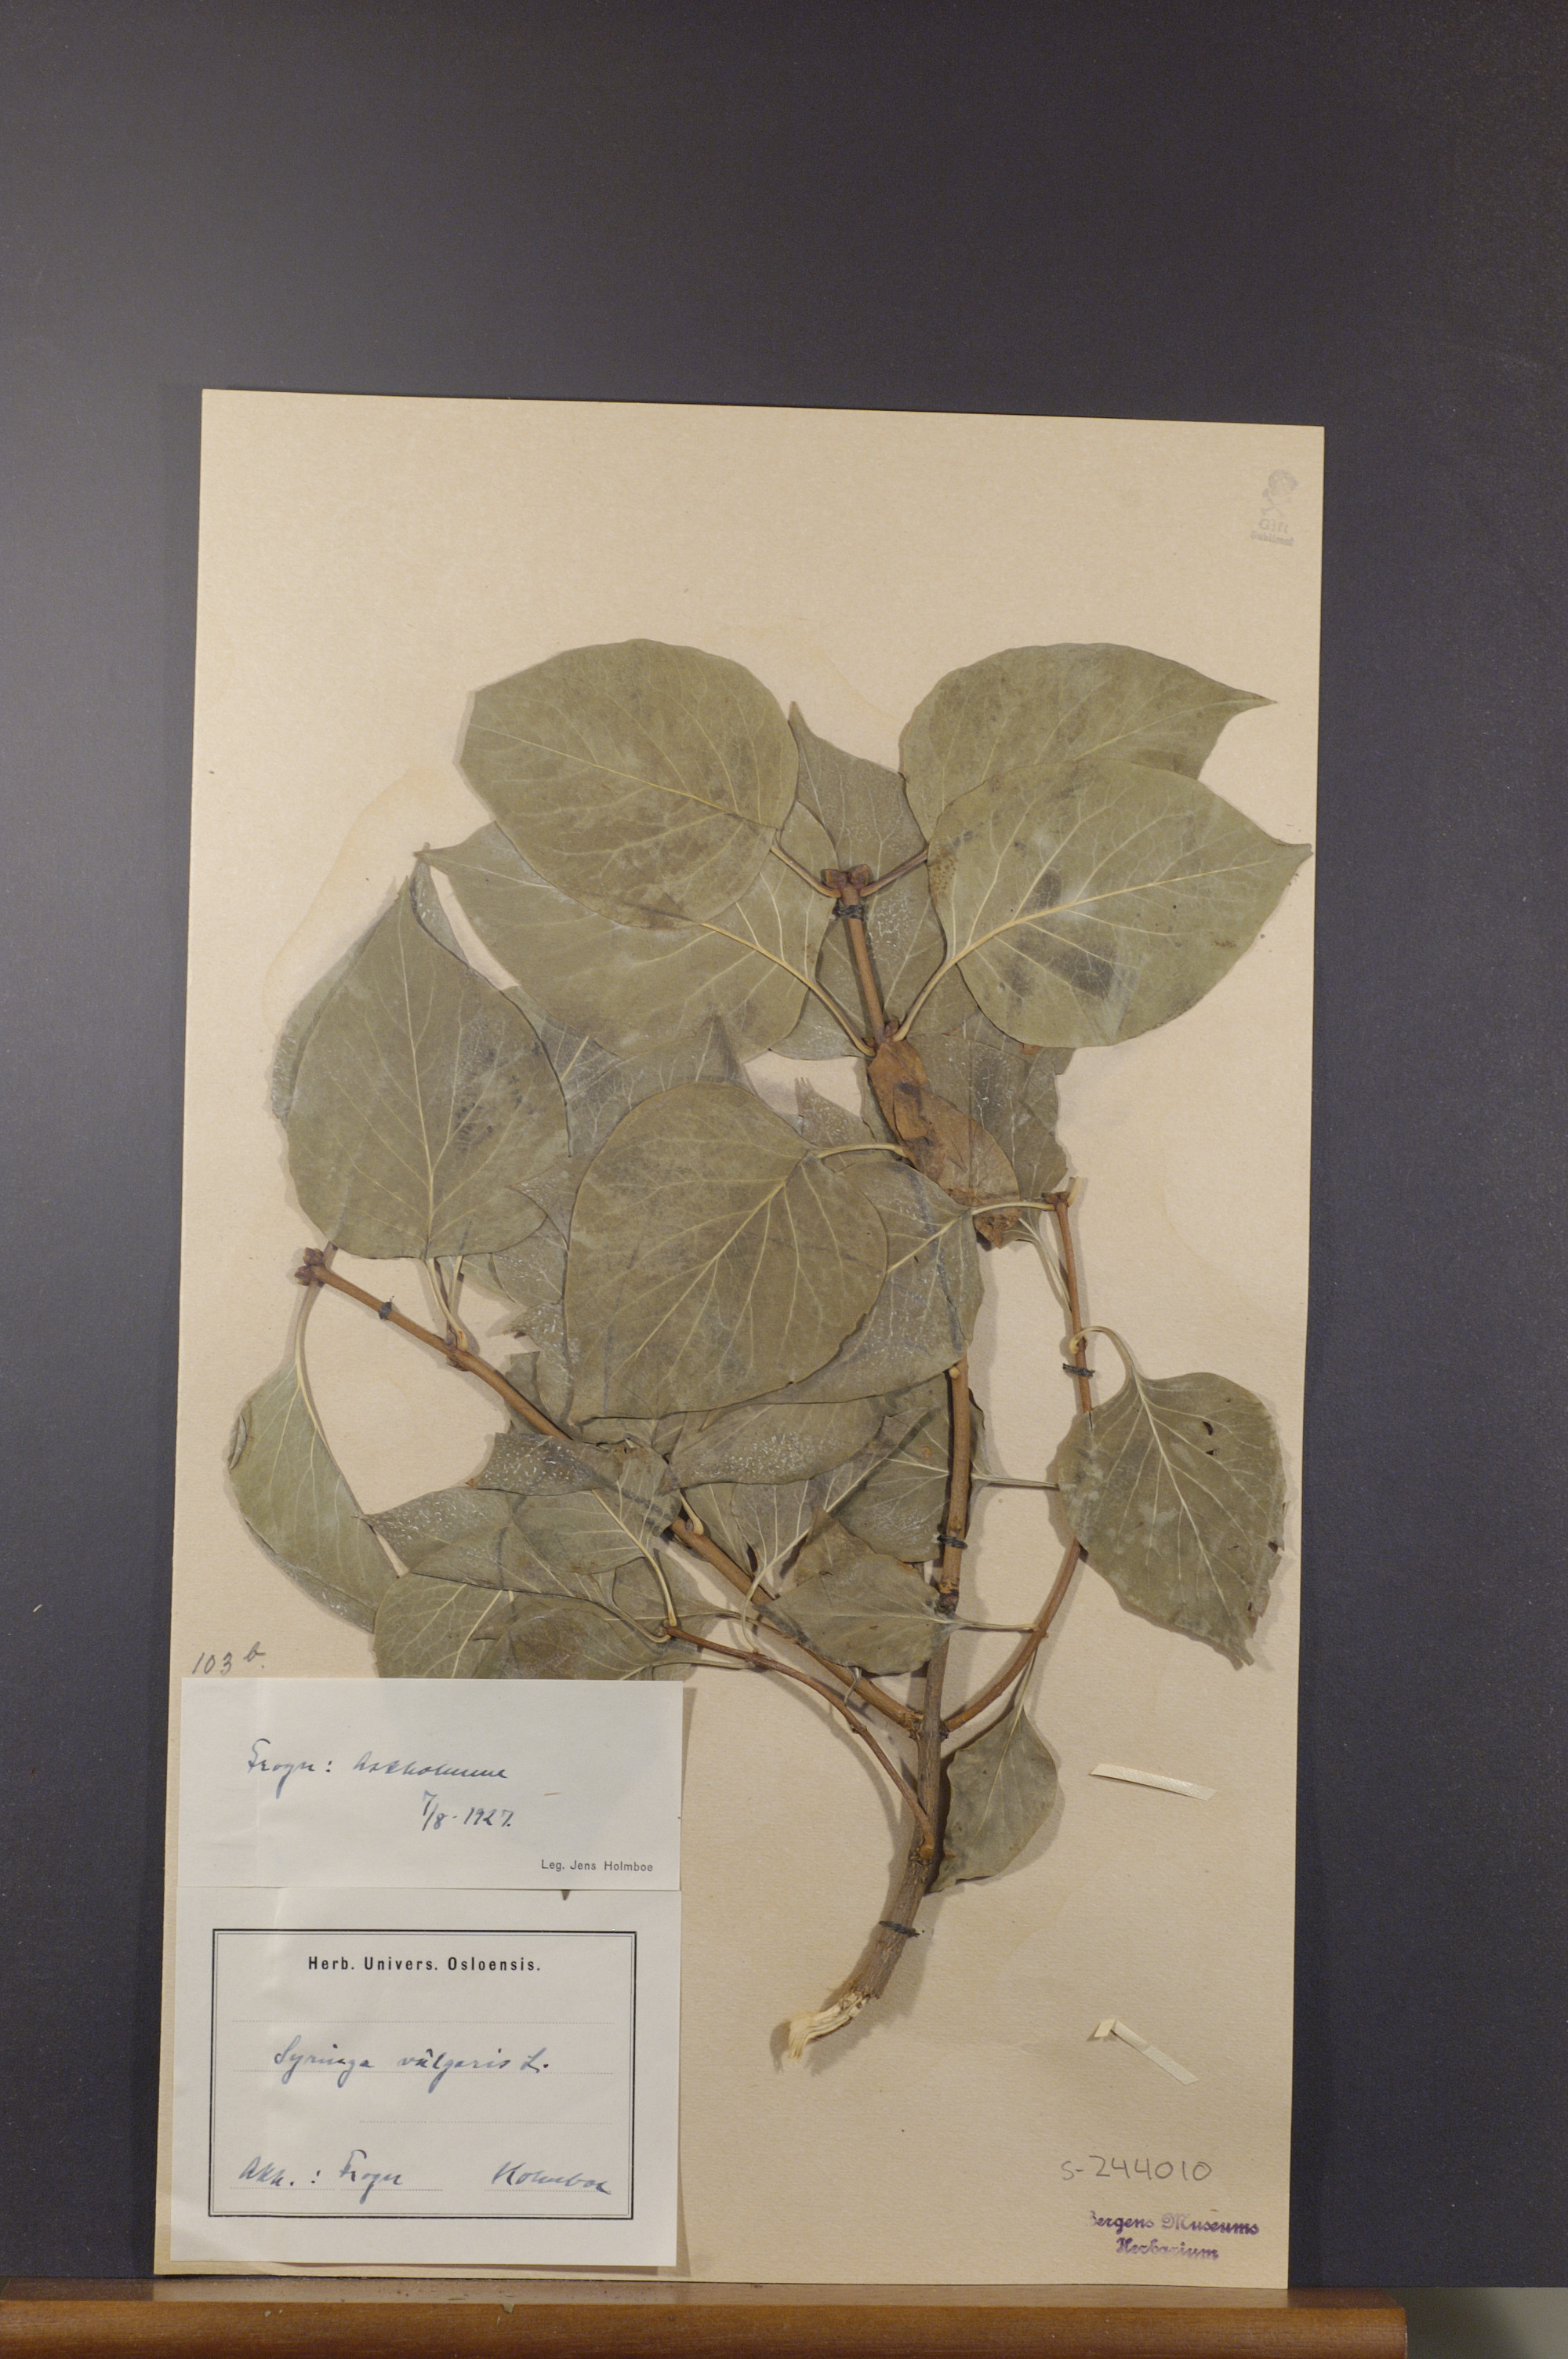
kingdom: Plantae
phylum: Tracheophyta
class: Magnoliopsida
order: Lamiales
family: Oleaceae
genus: Syringa
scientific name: Syringa vulgaris
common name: Common lilac
